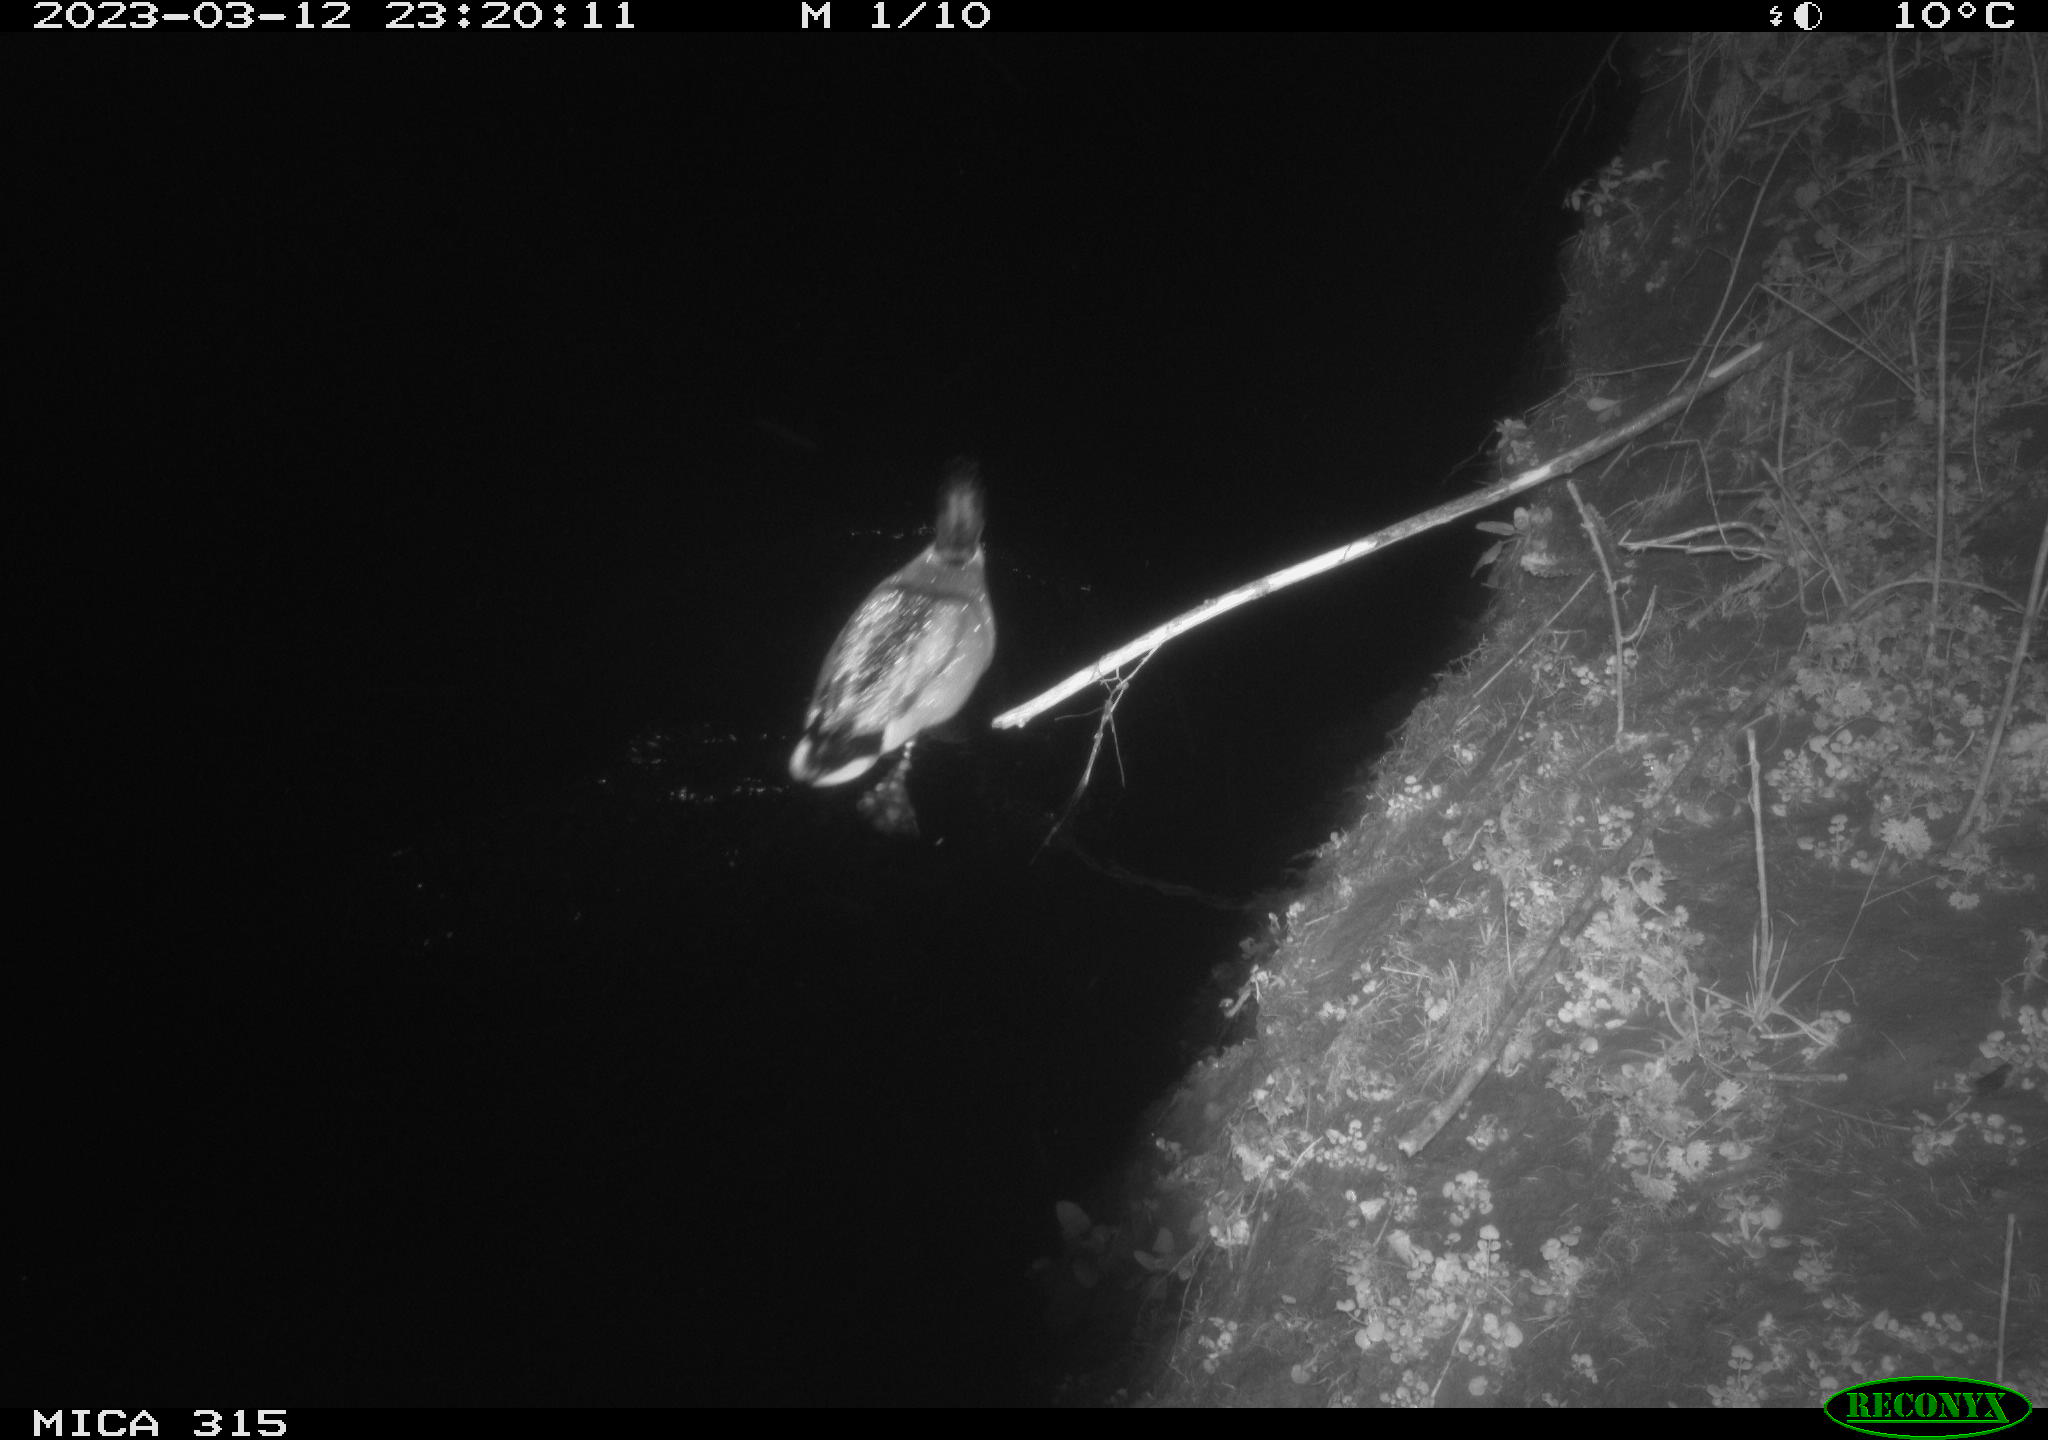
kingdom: Animalia
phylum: Chordata
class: Aves
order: Anseriformes
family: Anatidae
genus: Anas
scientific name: Anas
